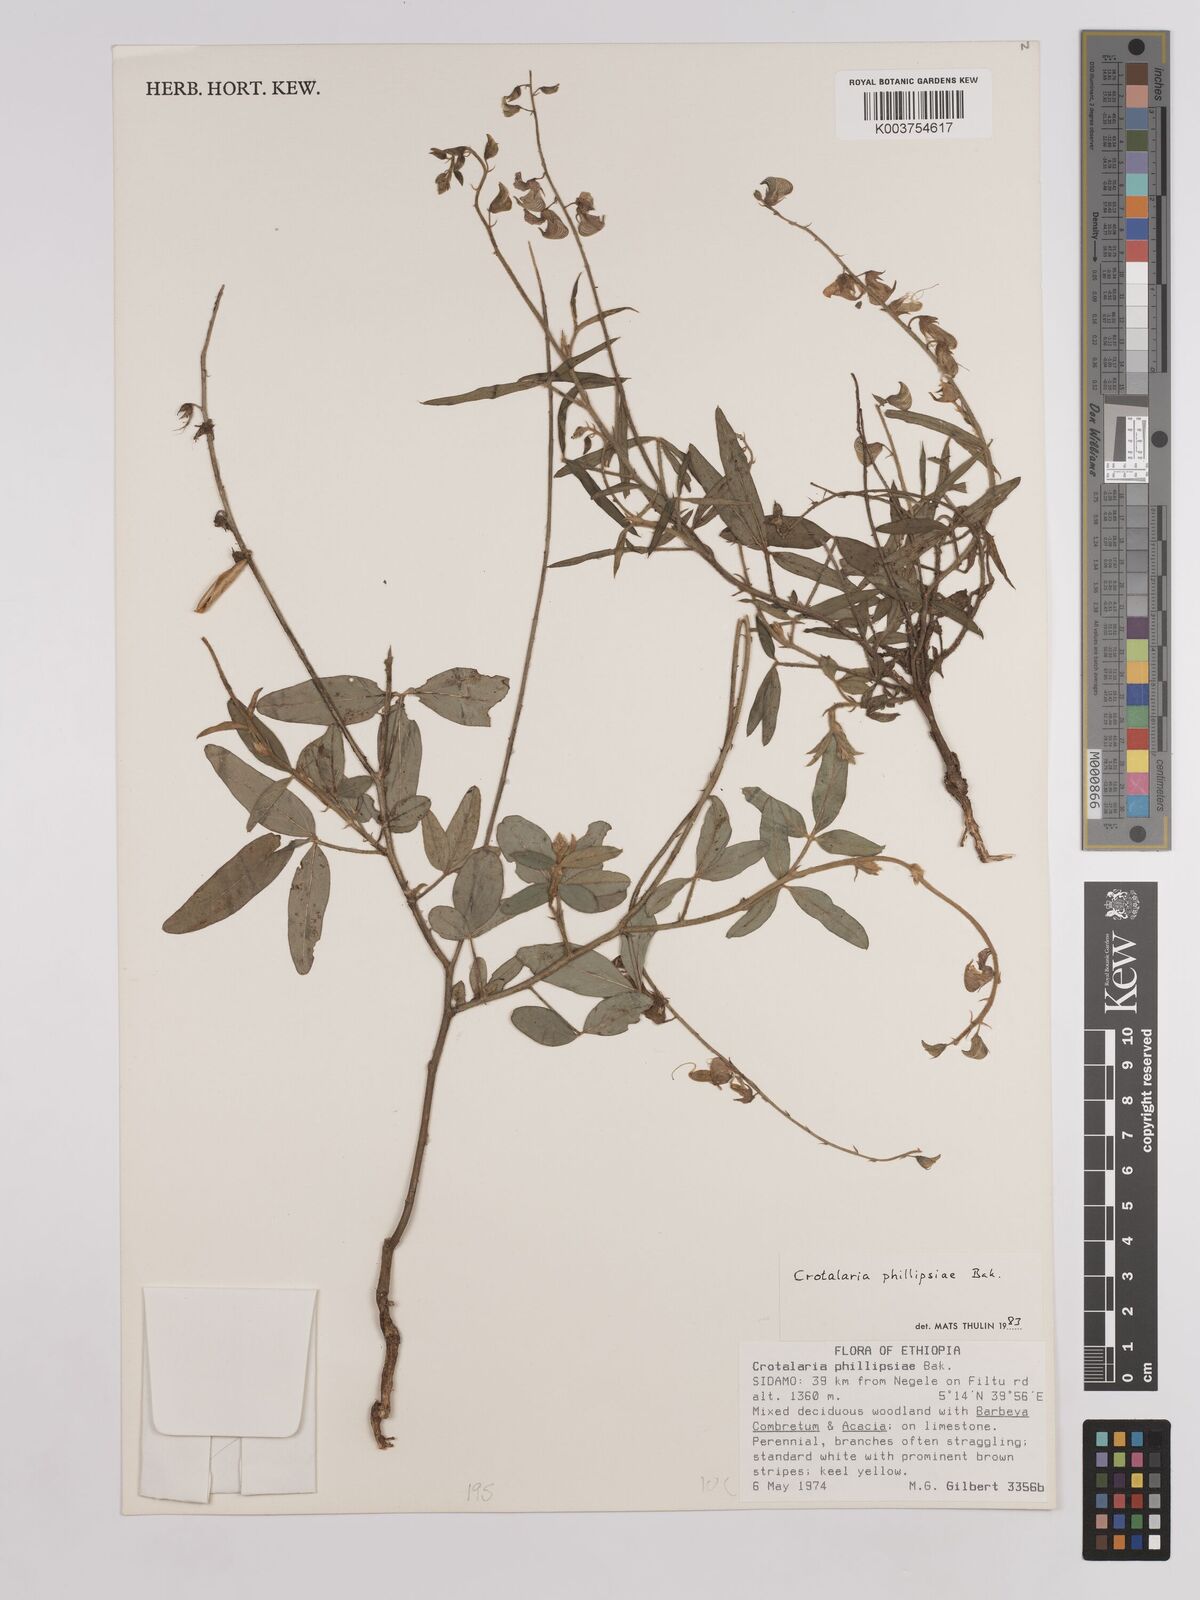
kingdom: Plantae
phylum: Tracheophyta
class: Magnoliopsida
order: Fabales
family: Fabaceae
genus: Crotalaria
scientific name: Crotalaria phillipsiae
